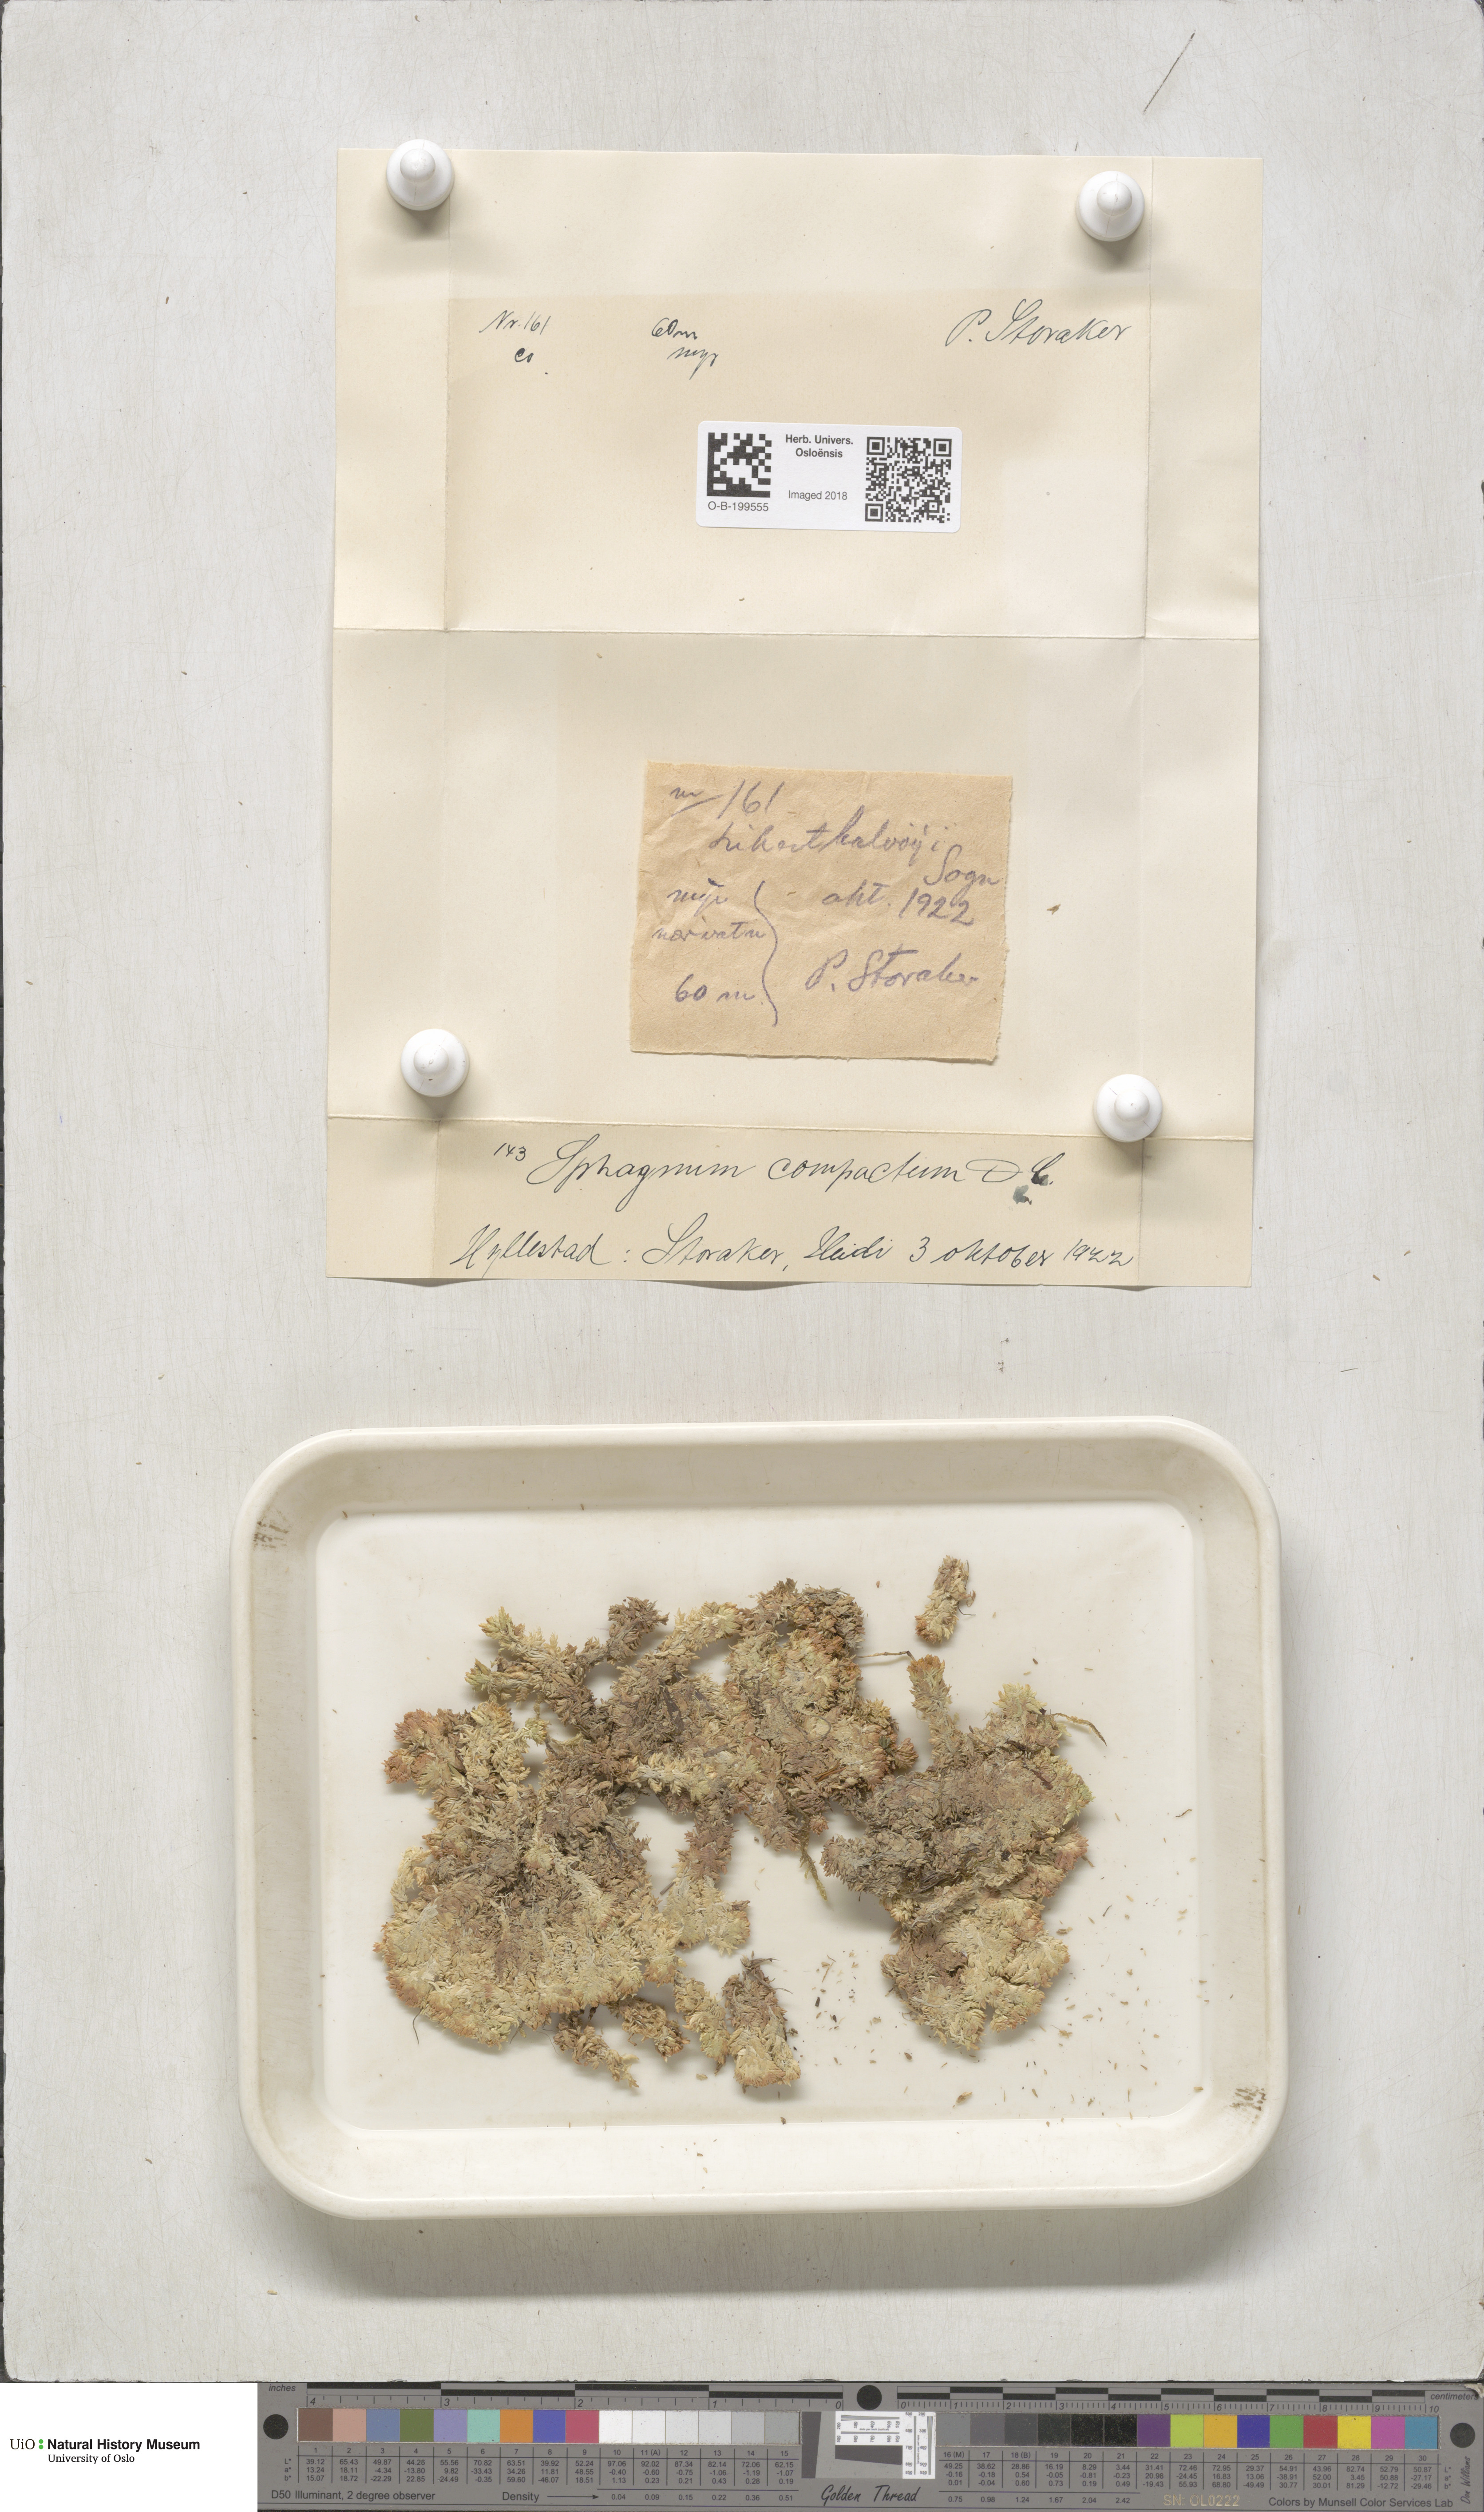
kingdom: Plantae
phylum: Bryophyta
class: Sphagnopsida
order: Sphagnales
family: Sphagnaceae
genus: Sphagnum
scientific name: Sphagnum compactum
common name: Compact peat moss
